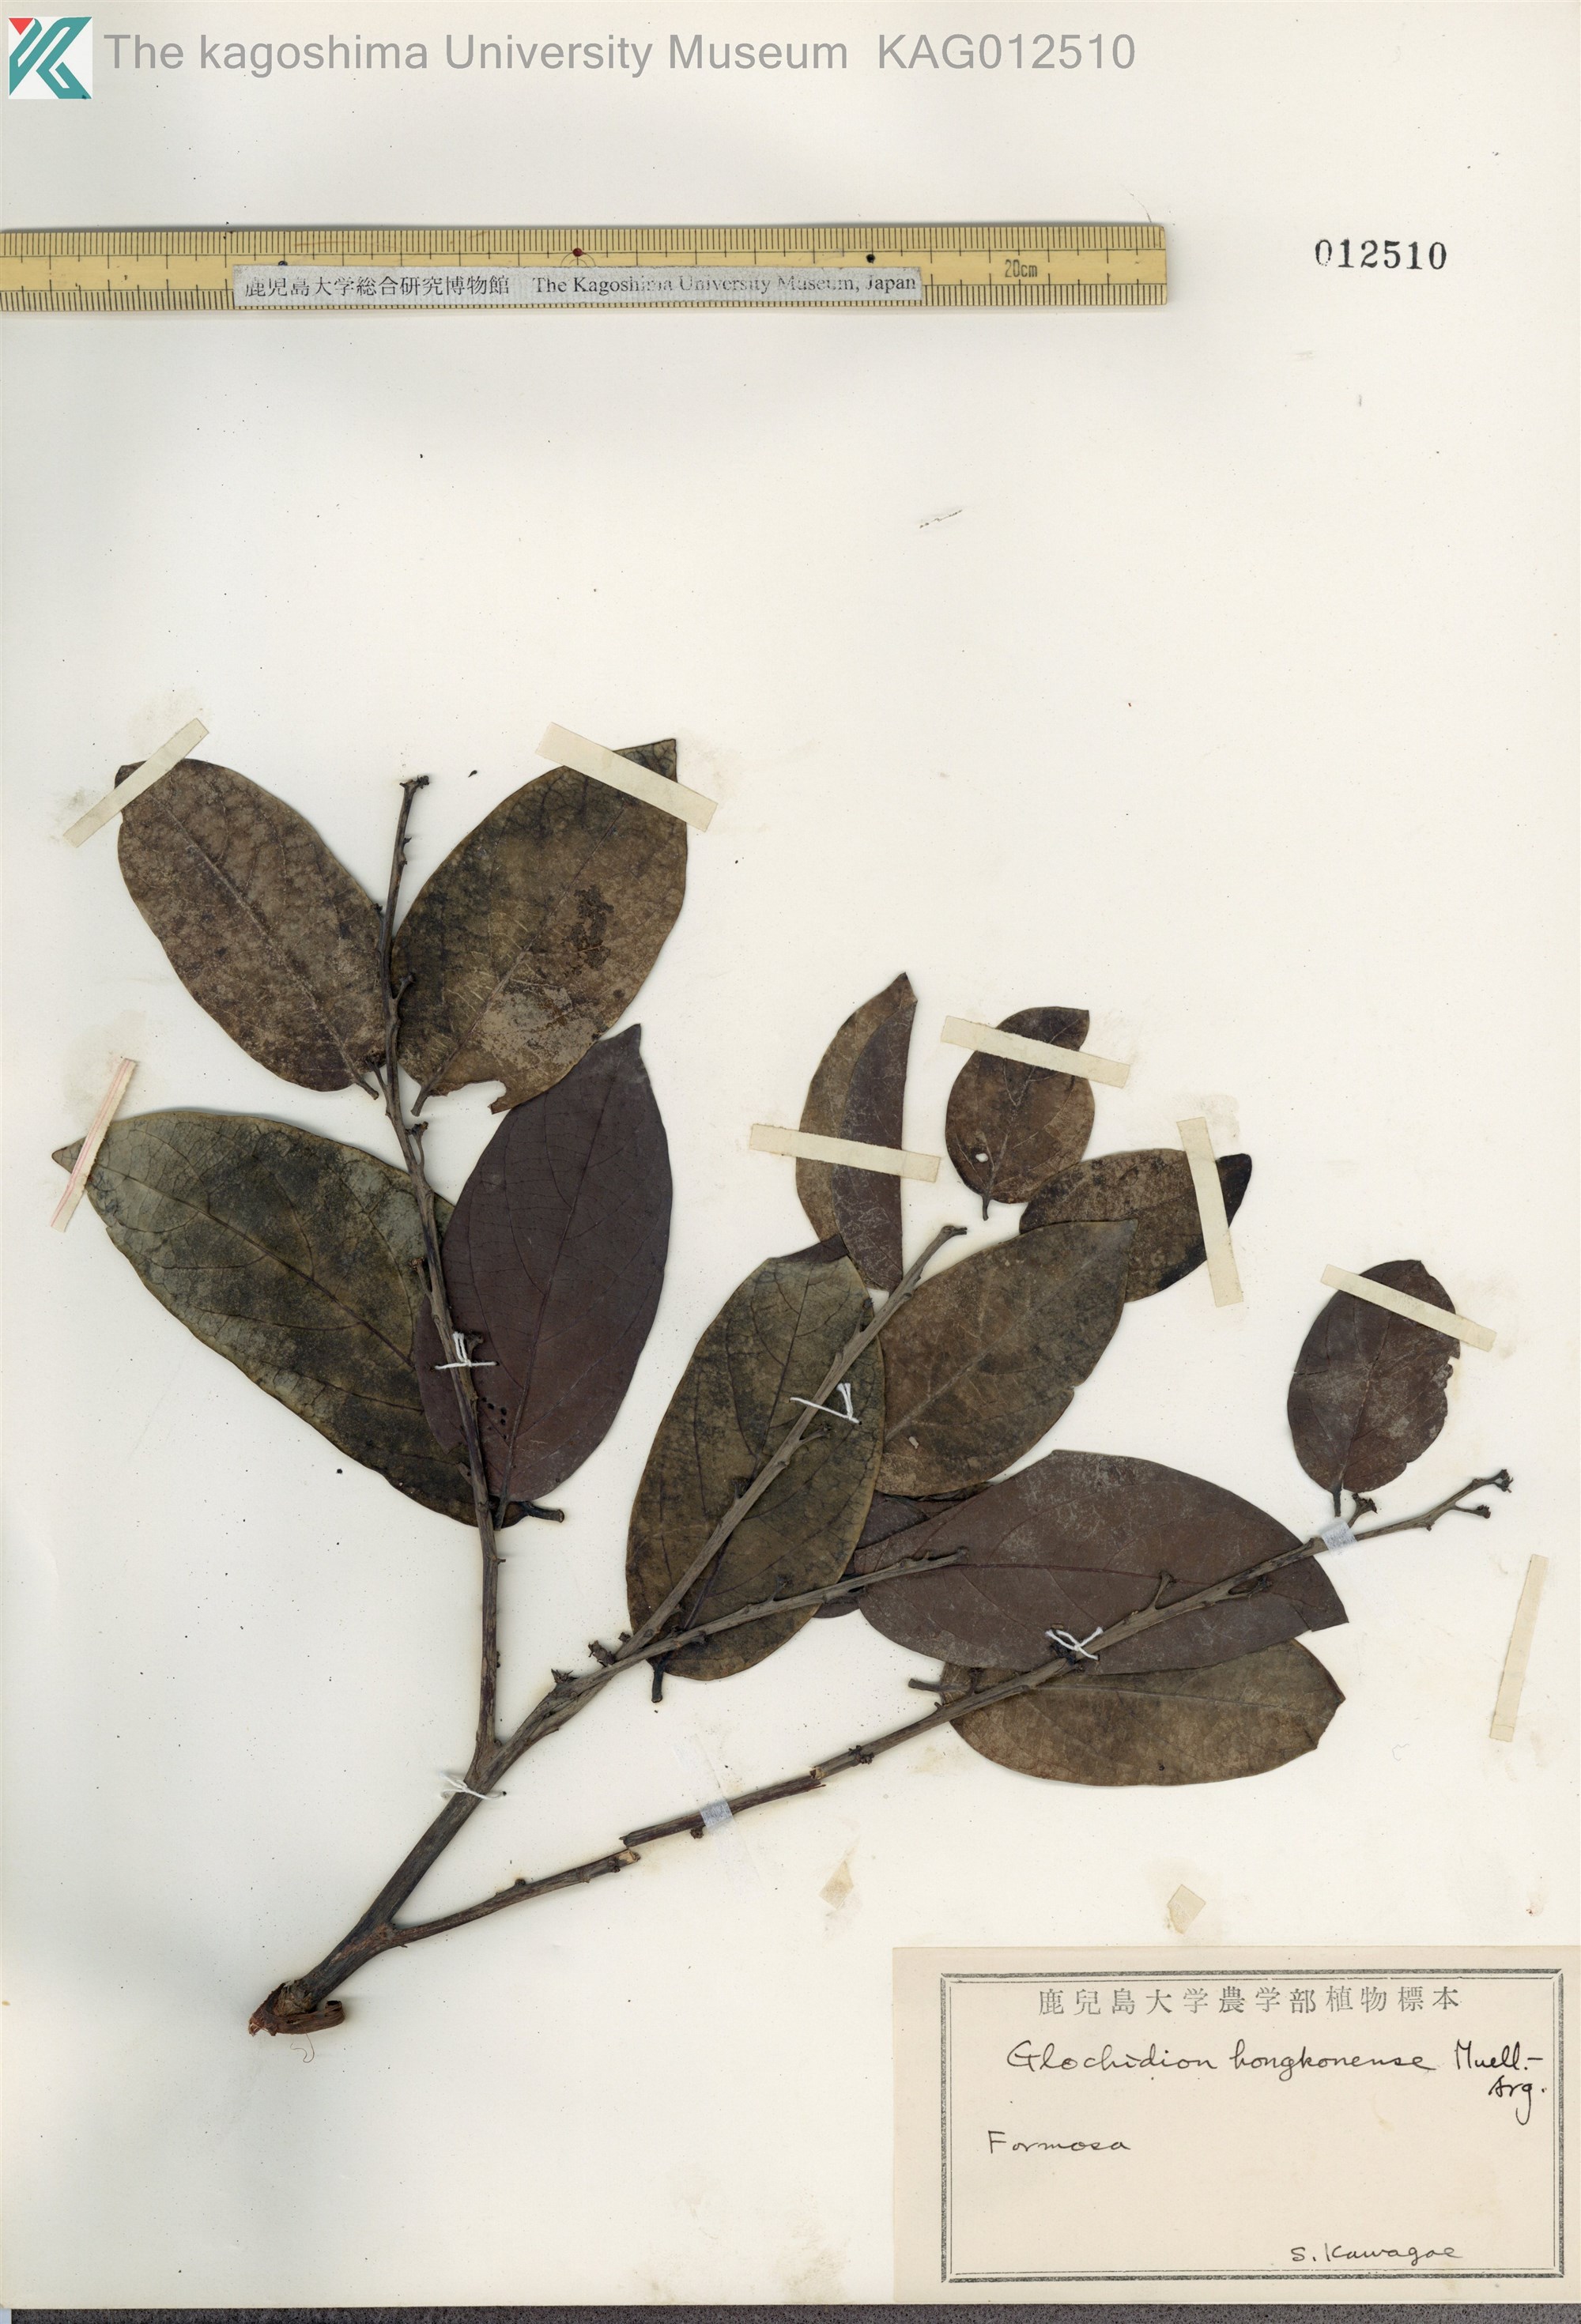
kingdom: Plantae
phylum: Tracheophyta
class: Magnoliopsida
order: Malpighiales
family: Phyllanthaceae
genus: Glochidion
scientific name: Glochidion zeylanicum
